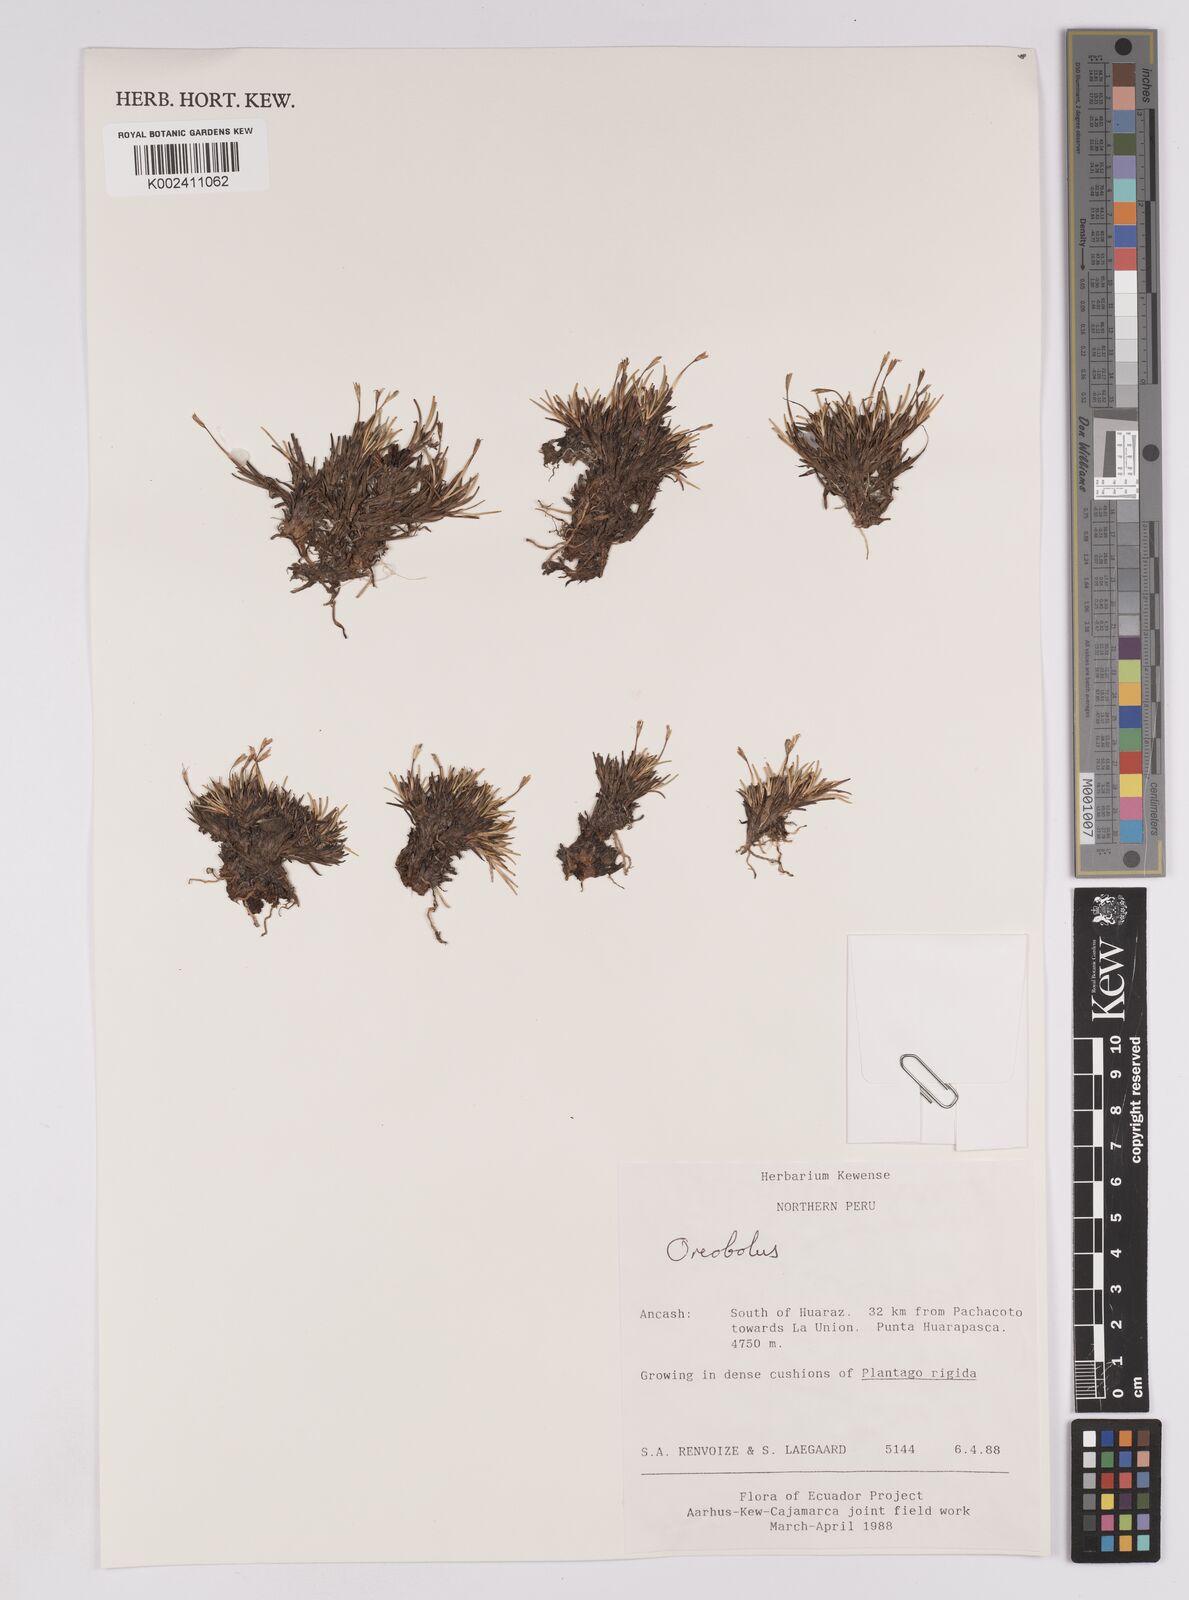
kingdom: Plantae
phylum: Tracheophyta
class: Liliopsida
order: Poales
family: Cyperaceae
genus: Oreobolus
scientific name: Oreobolus
